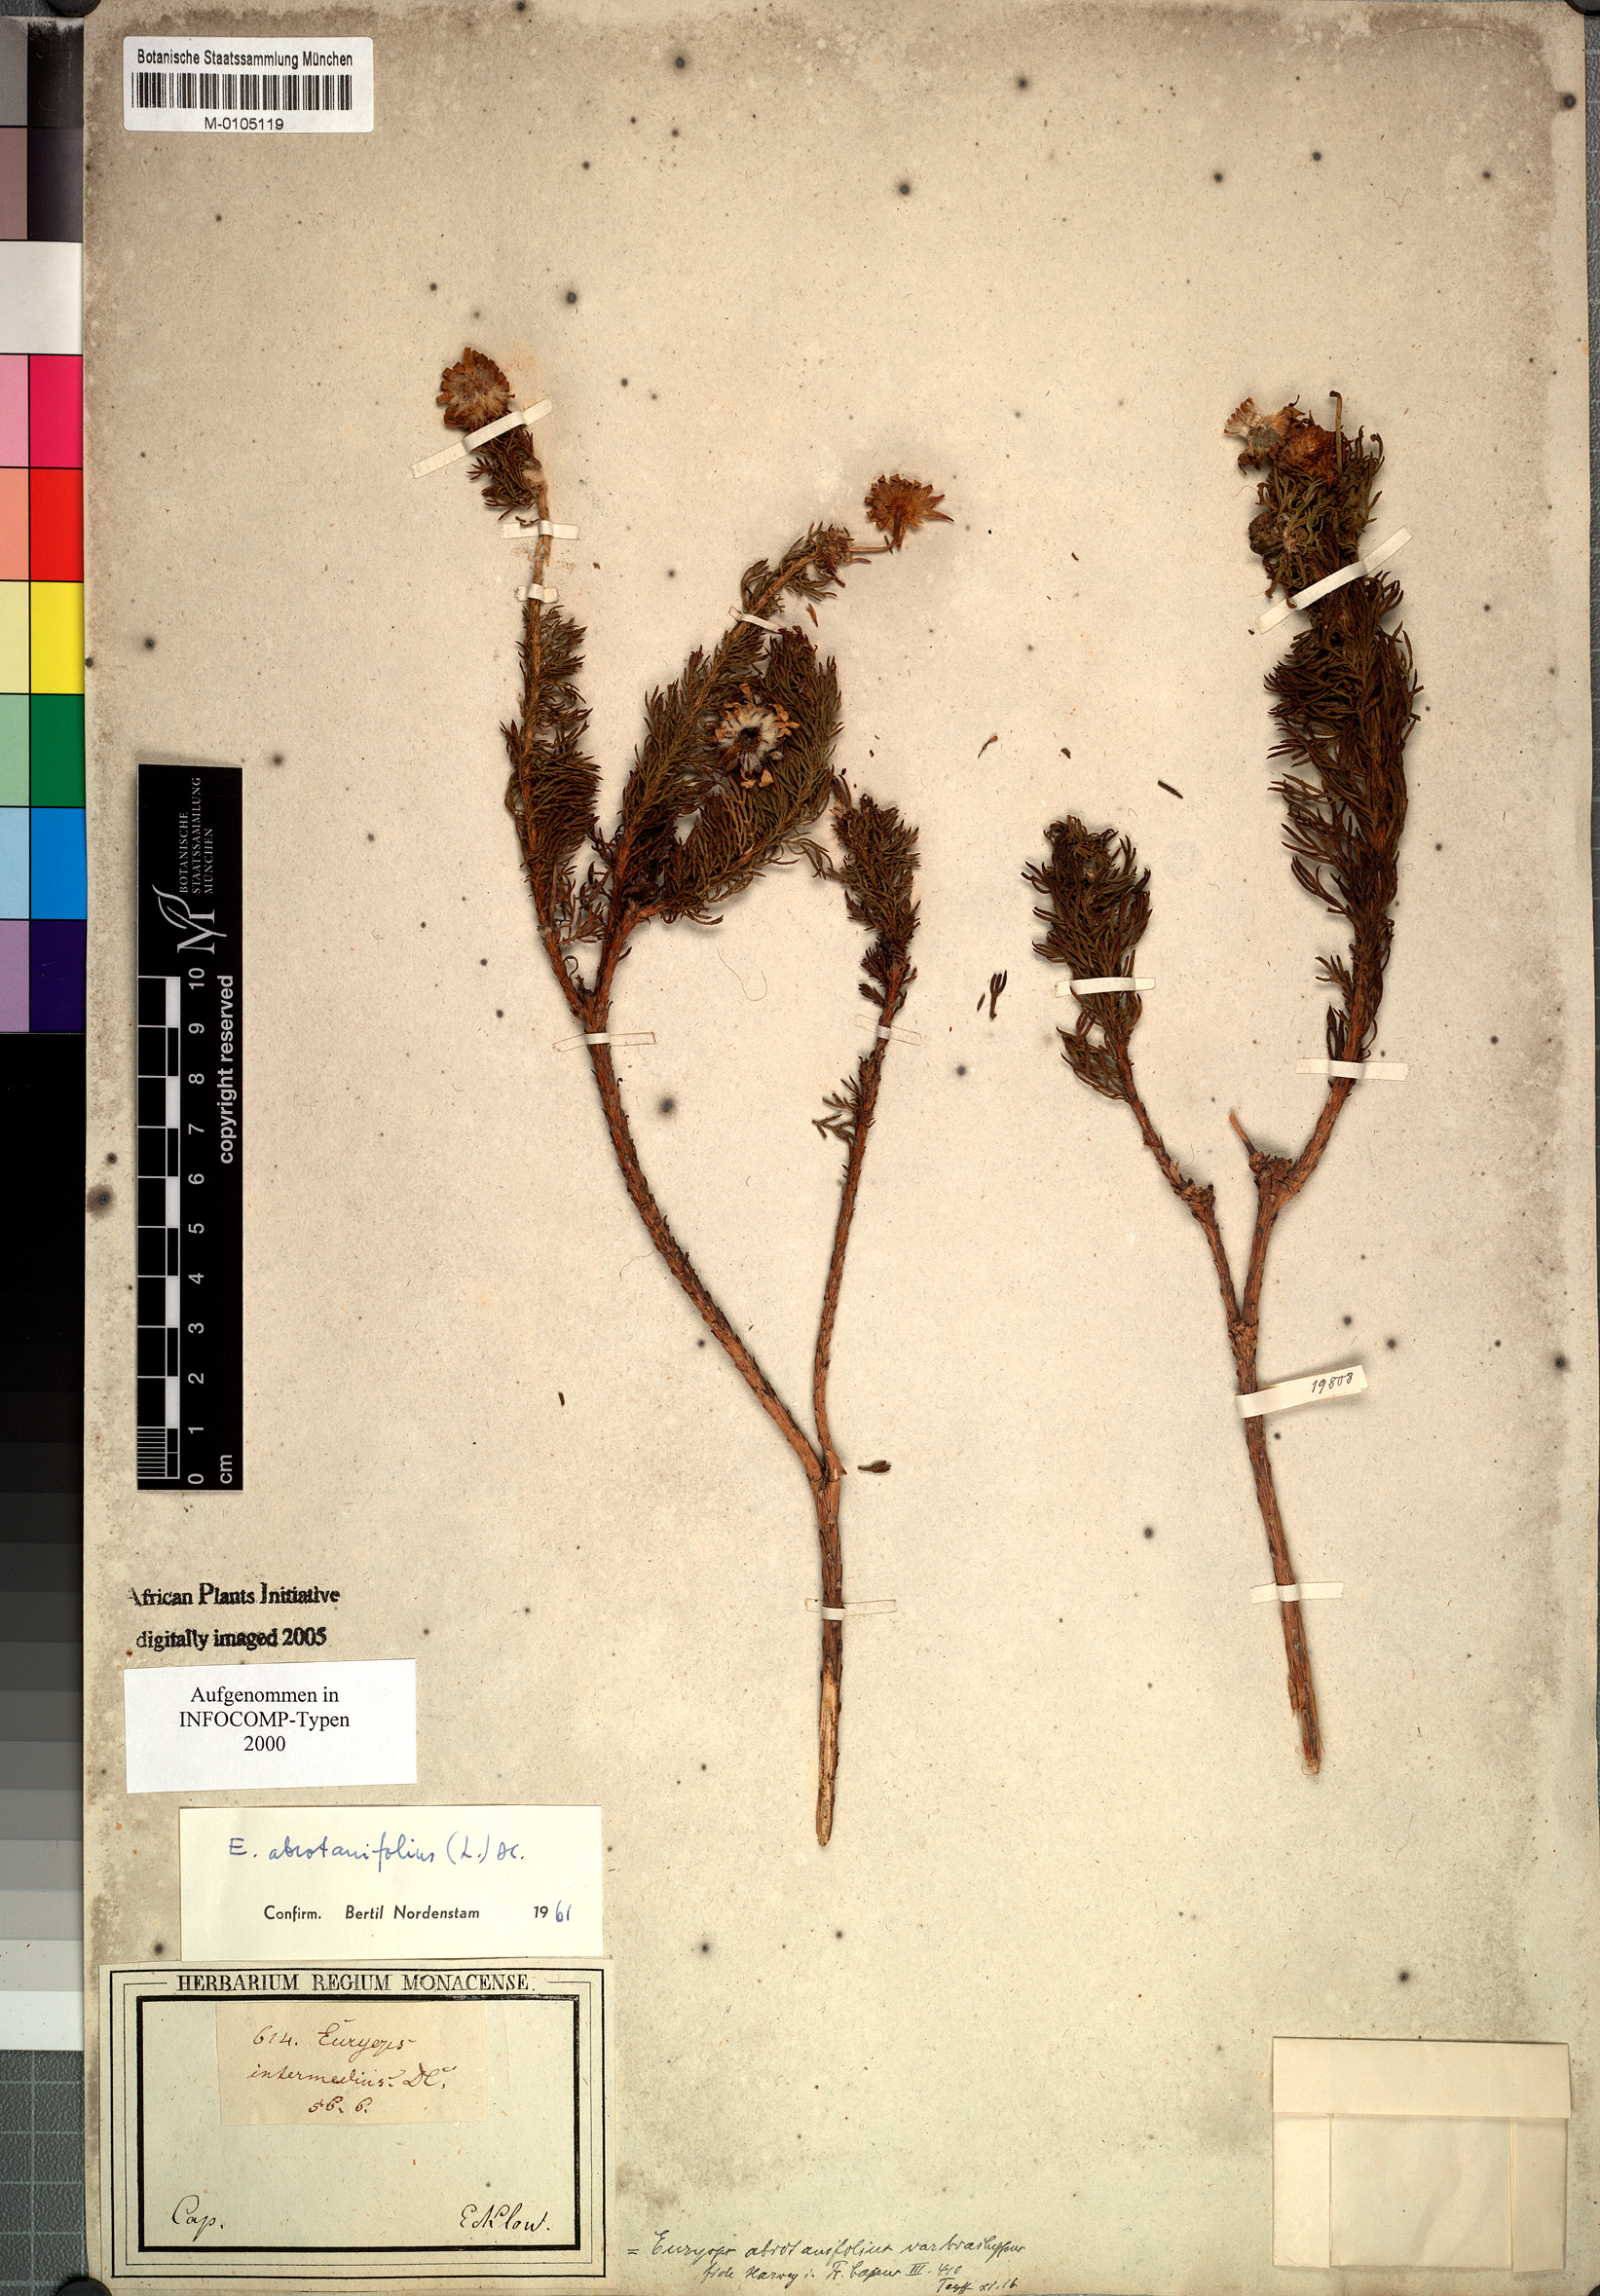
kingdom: Plantae
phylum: Tracheophyta
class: Magnoliopsida
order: Asterales
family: Asteraceae
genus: Euryops
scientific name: Euryops abrotanifolius
